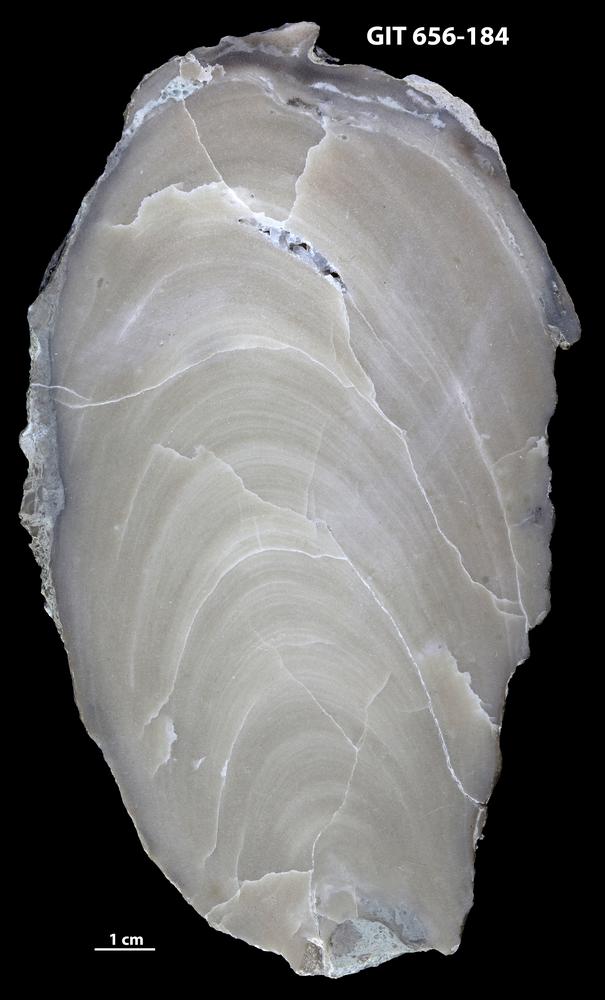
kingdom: Animalia
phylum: Porifera
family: Actinostromatidae
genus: Plectostroma
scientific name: Plectostroma
